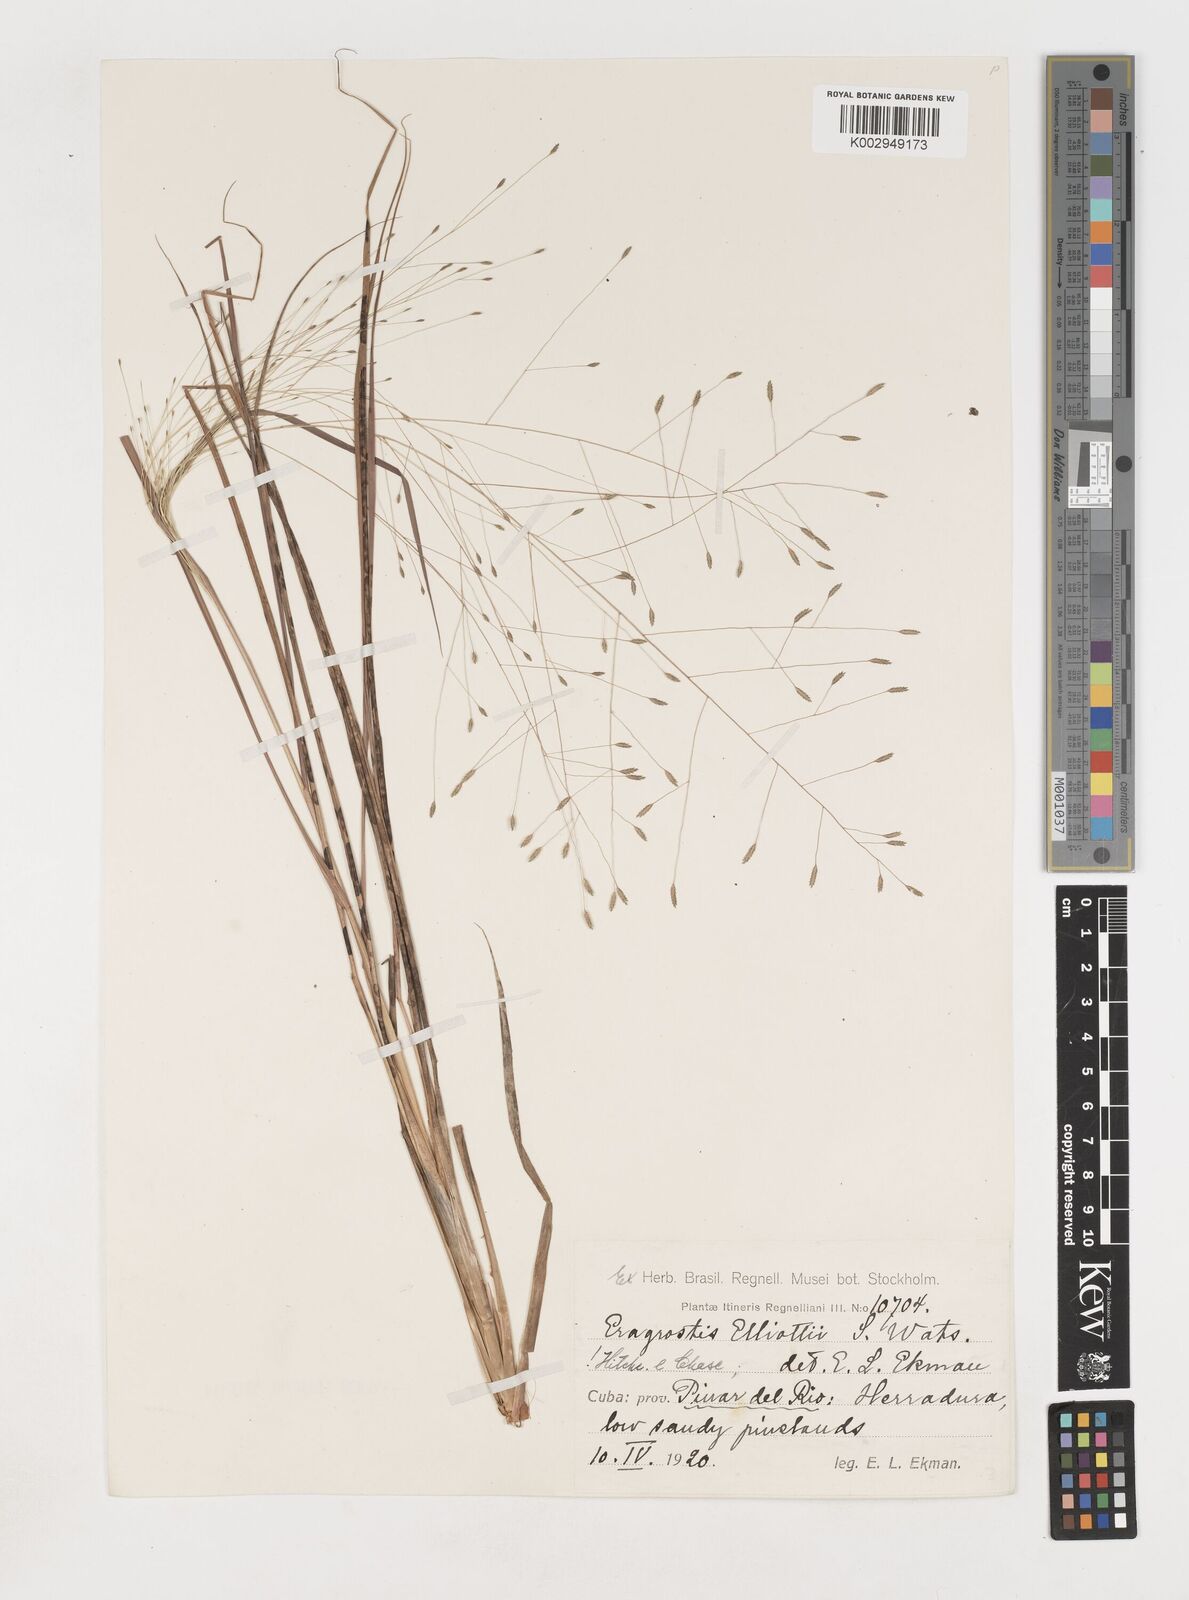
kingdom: Plantae
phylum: Tracheophyta
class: Liliopsida
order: Poales
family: Poaceae
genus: Eragrostis
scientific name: Eragrostis elliottii
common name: Elliott's love grass
